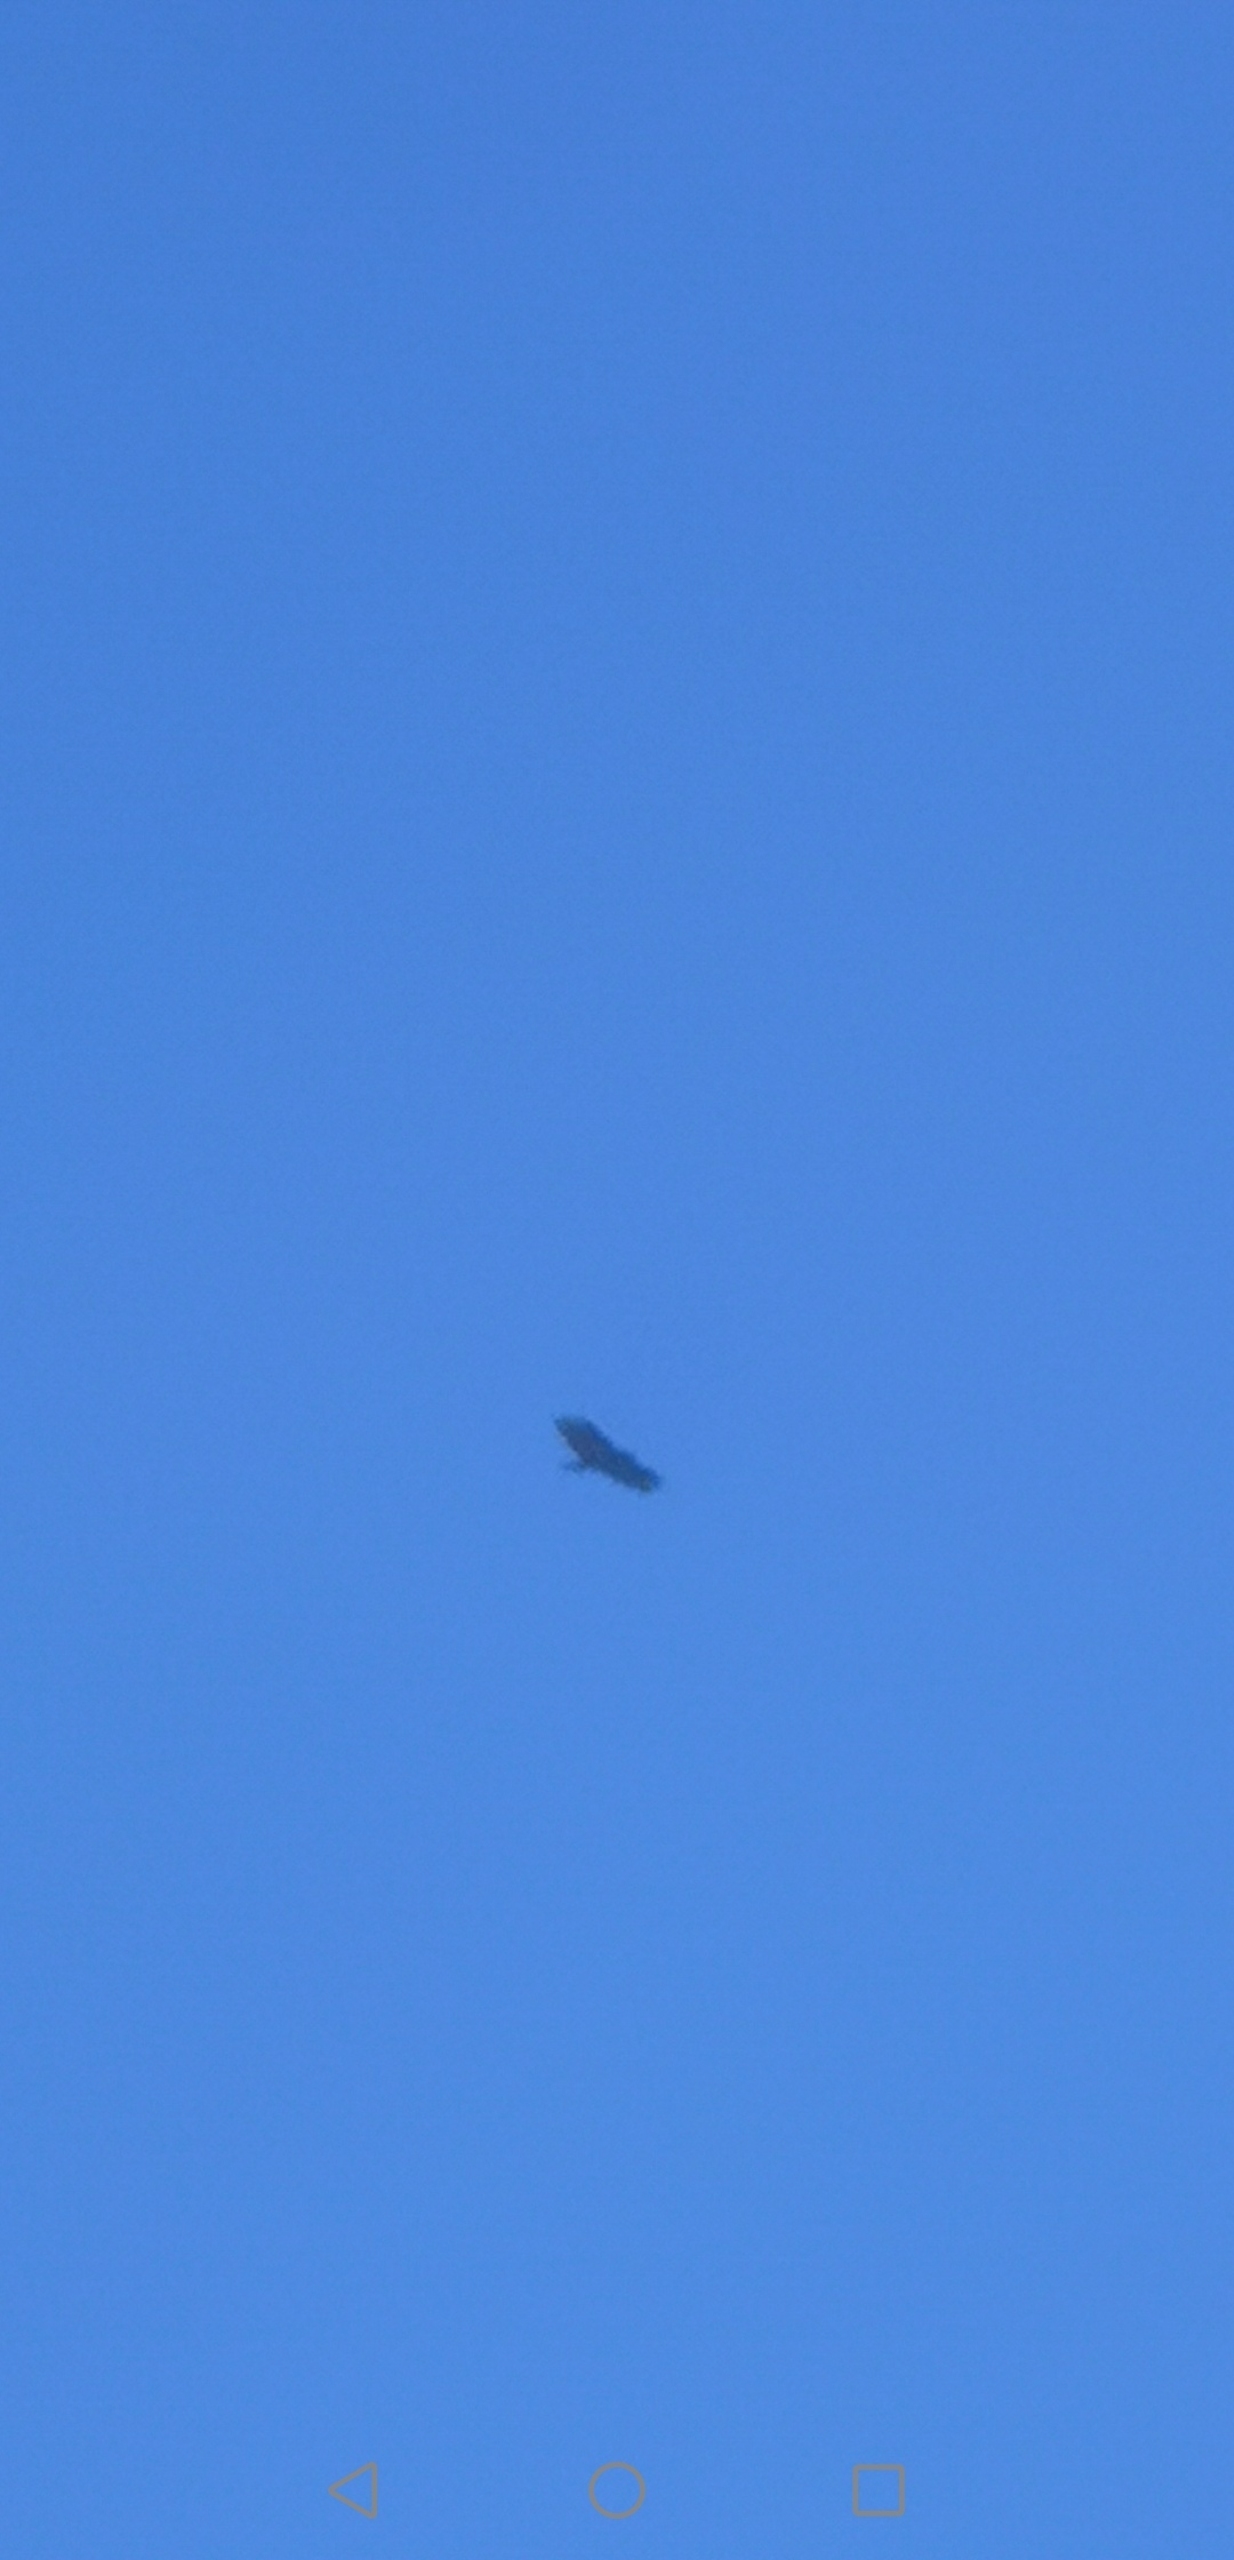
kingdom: Animalia
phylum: Chordata
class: Aves
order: Accipitriformes
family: Accipitridae
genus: Buteo
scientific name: Buteo buteo
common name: Musvåge
